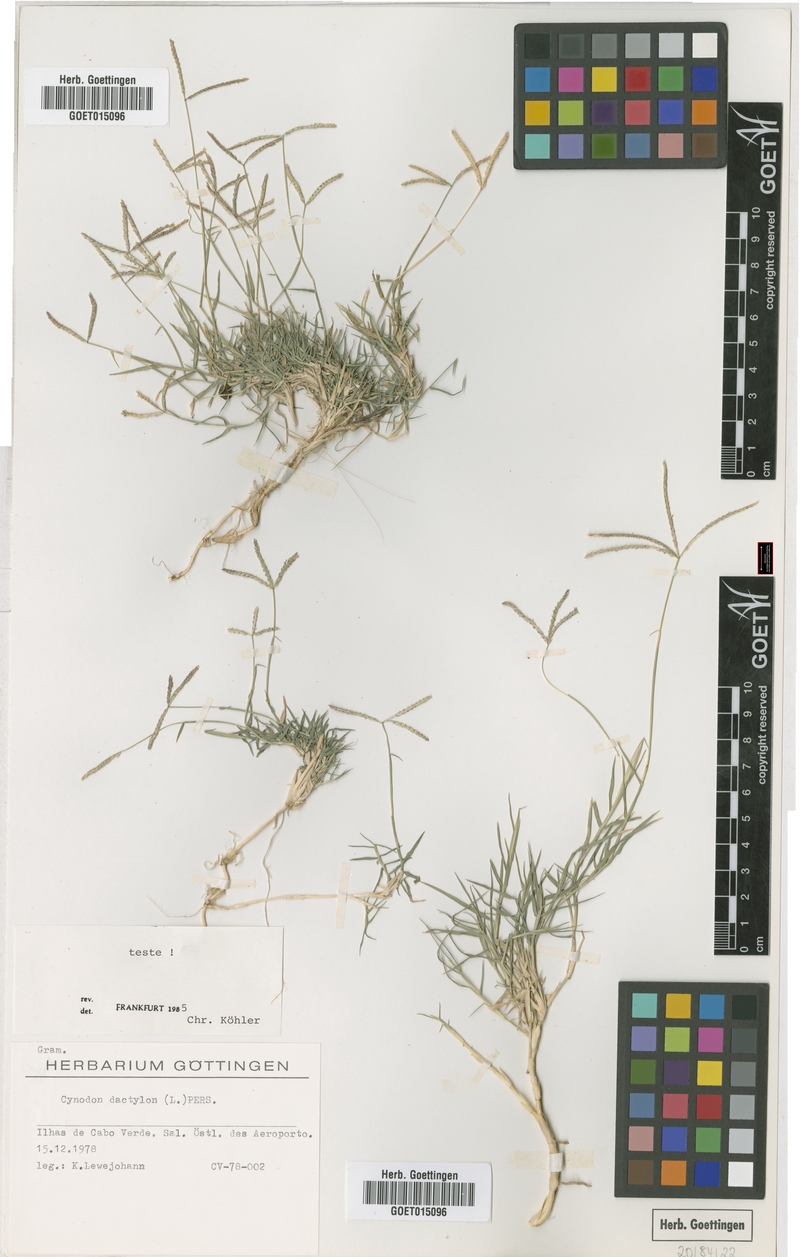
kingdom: Plantae
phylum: Tracheophyta
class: Liliopsida
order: Poales
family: Poaceae
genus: Cynodon
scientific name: Cynodon dactylon
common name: Bermuda grass
